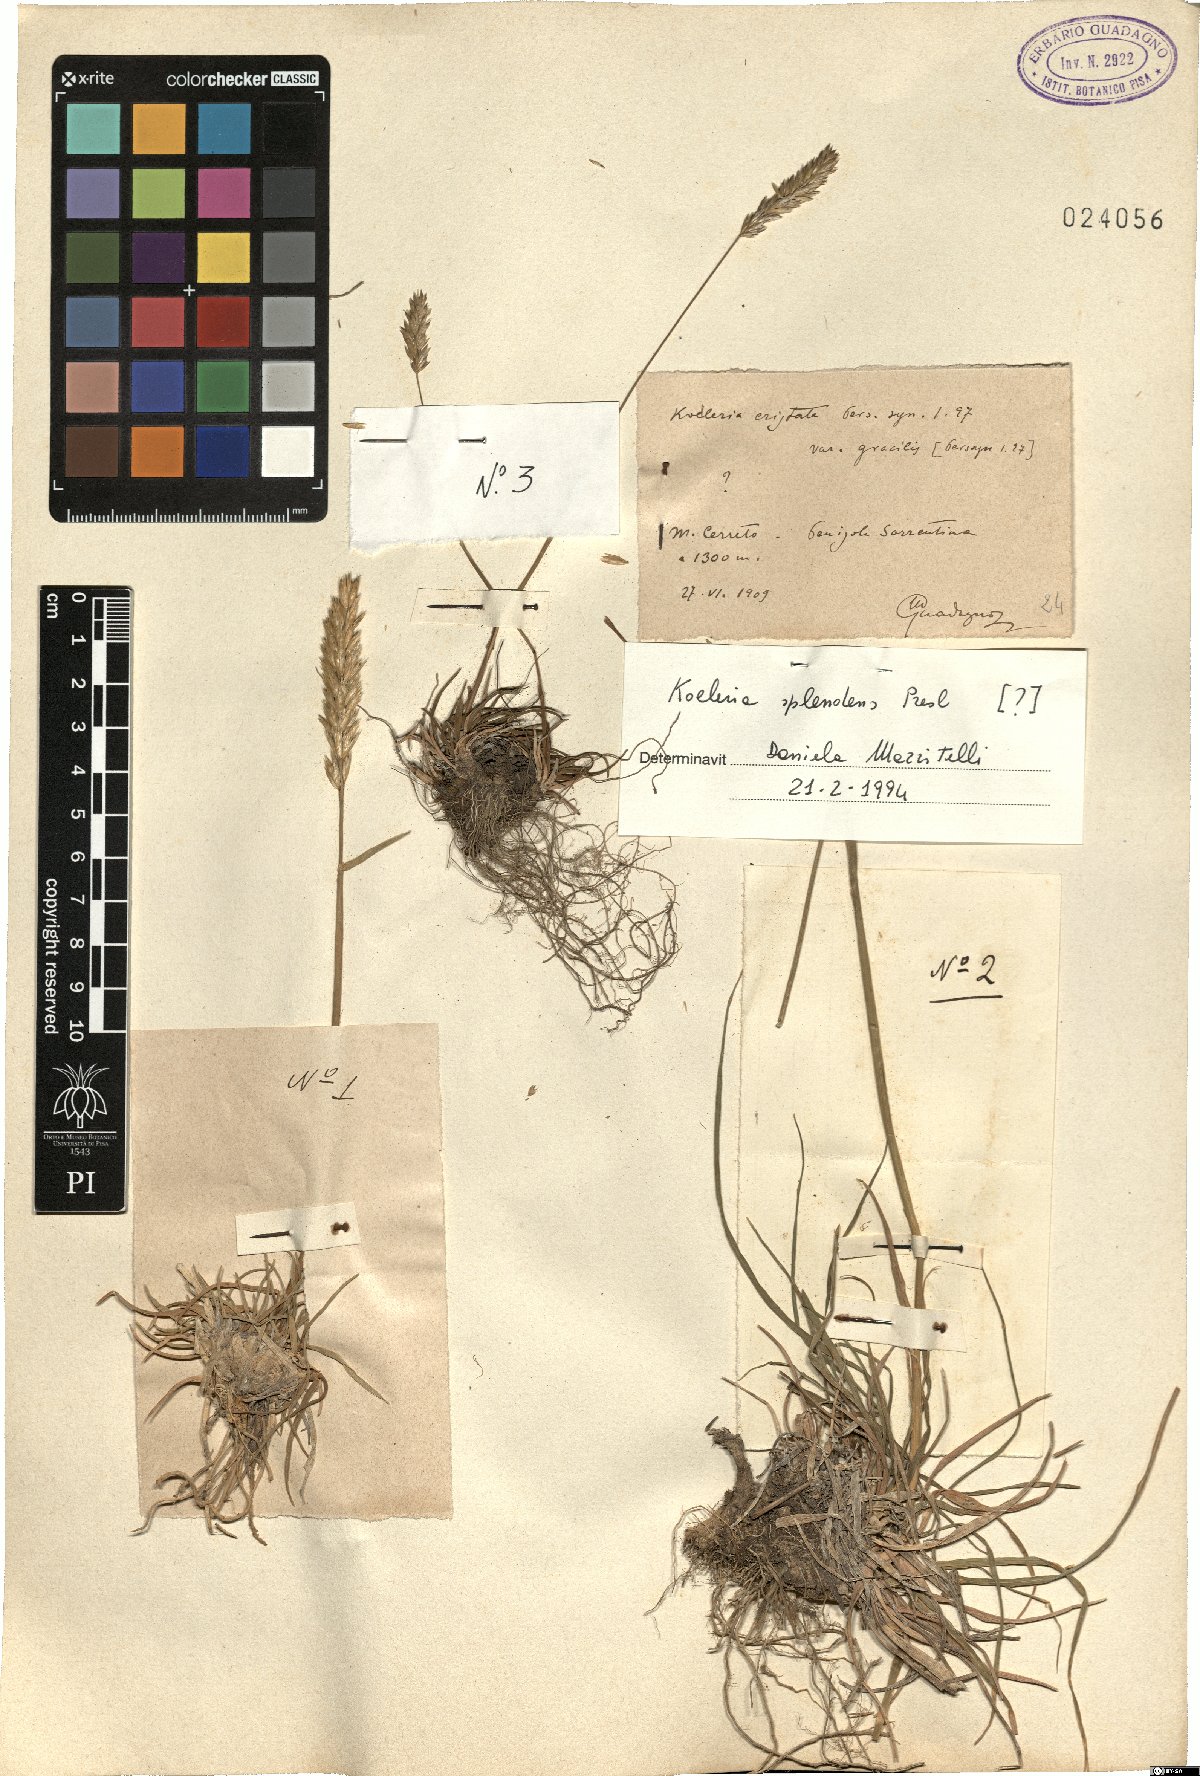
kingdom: Plantae
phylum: Tracheophyta
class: Liliopsida
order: Poales
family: Poaceae
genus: Koeleria
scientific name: Koeleria splendens
